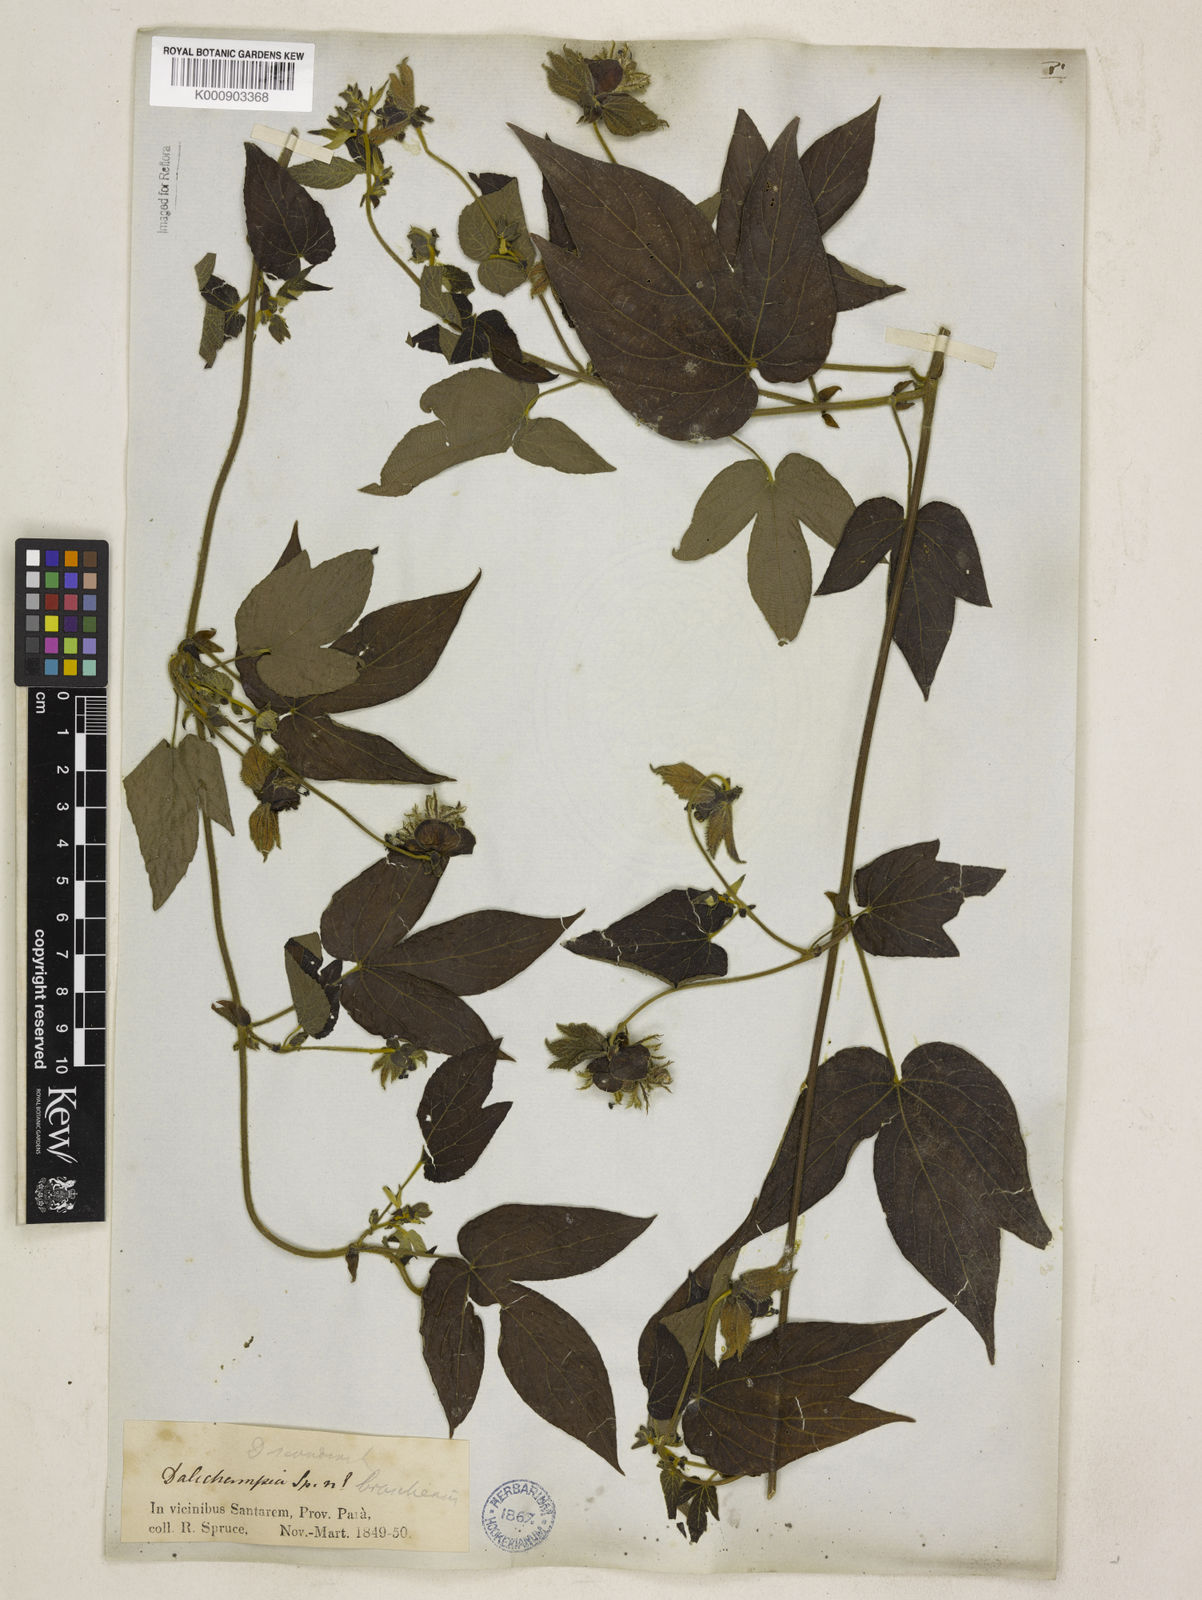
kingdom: Plantae
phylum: Tracheophyta
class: Magnoliopsida
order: Malpighiales
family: Euphorbiaceae
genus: Dalechampia
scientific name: Dalechampia pernambucensis
